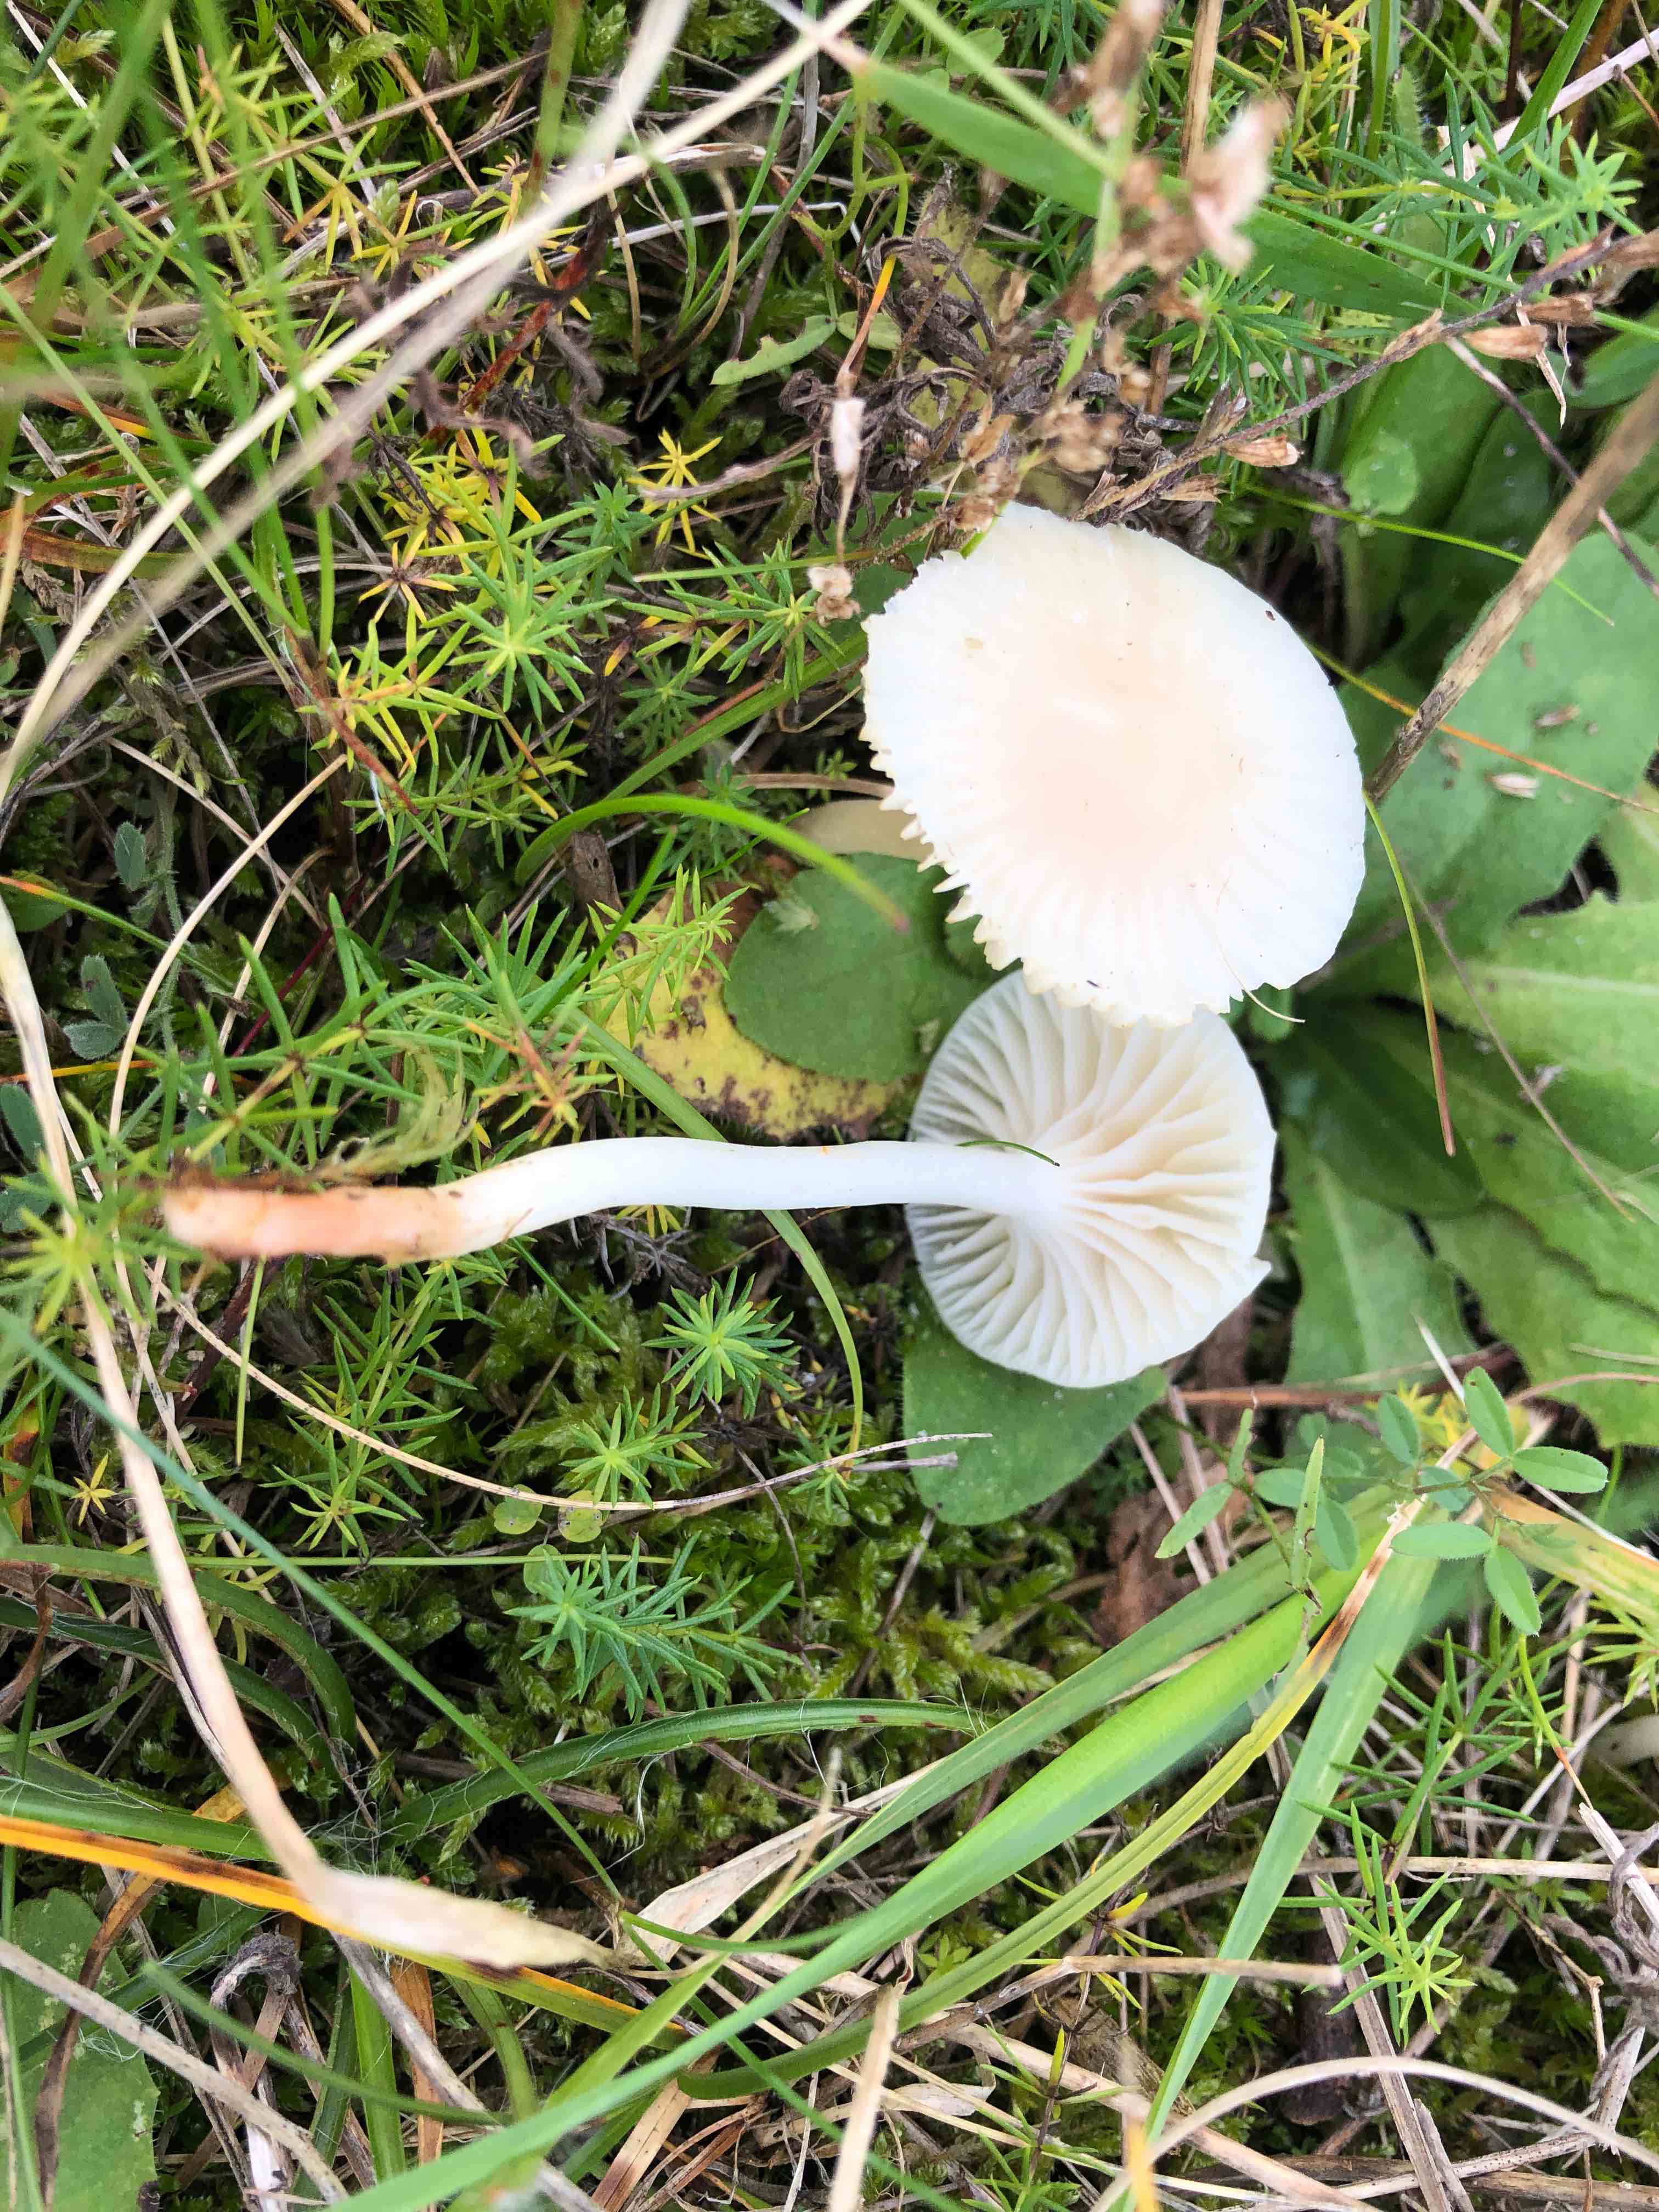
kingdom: Fungi
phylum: Basidiomycota
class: Agaricomycetes
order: Agaricales
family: Hygrophoraceae
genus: Cuphophyllus
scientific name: Cuphophyllus virgineus
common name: snehvid vokshat
